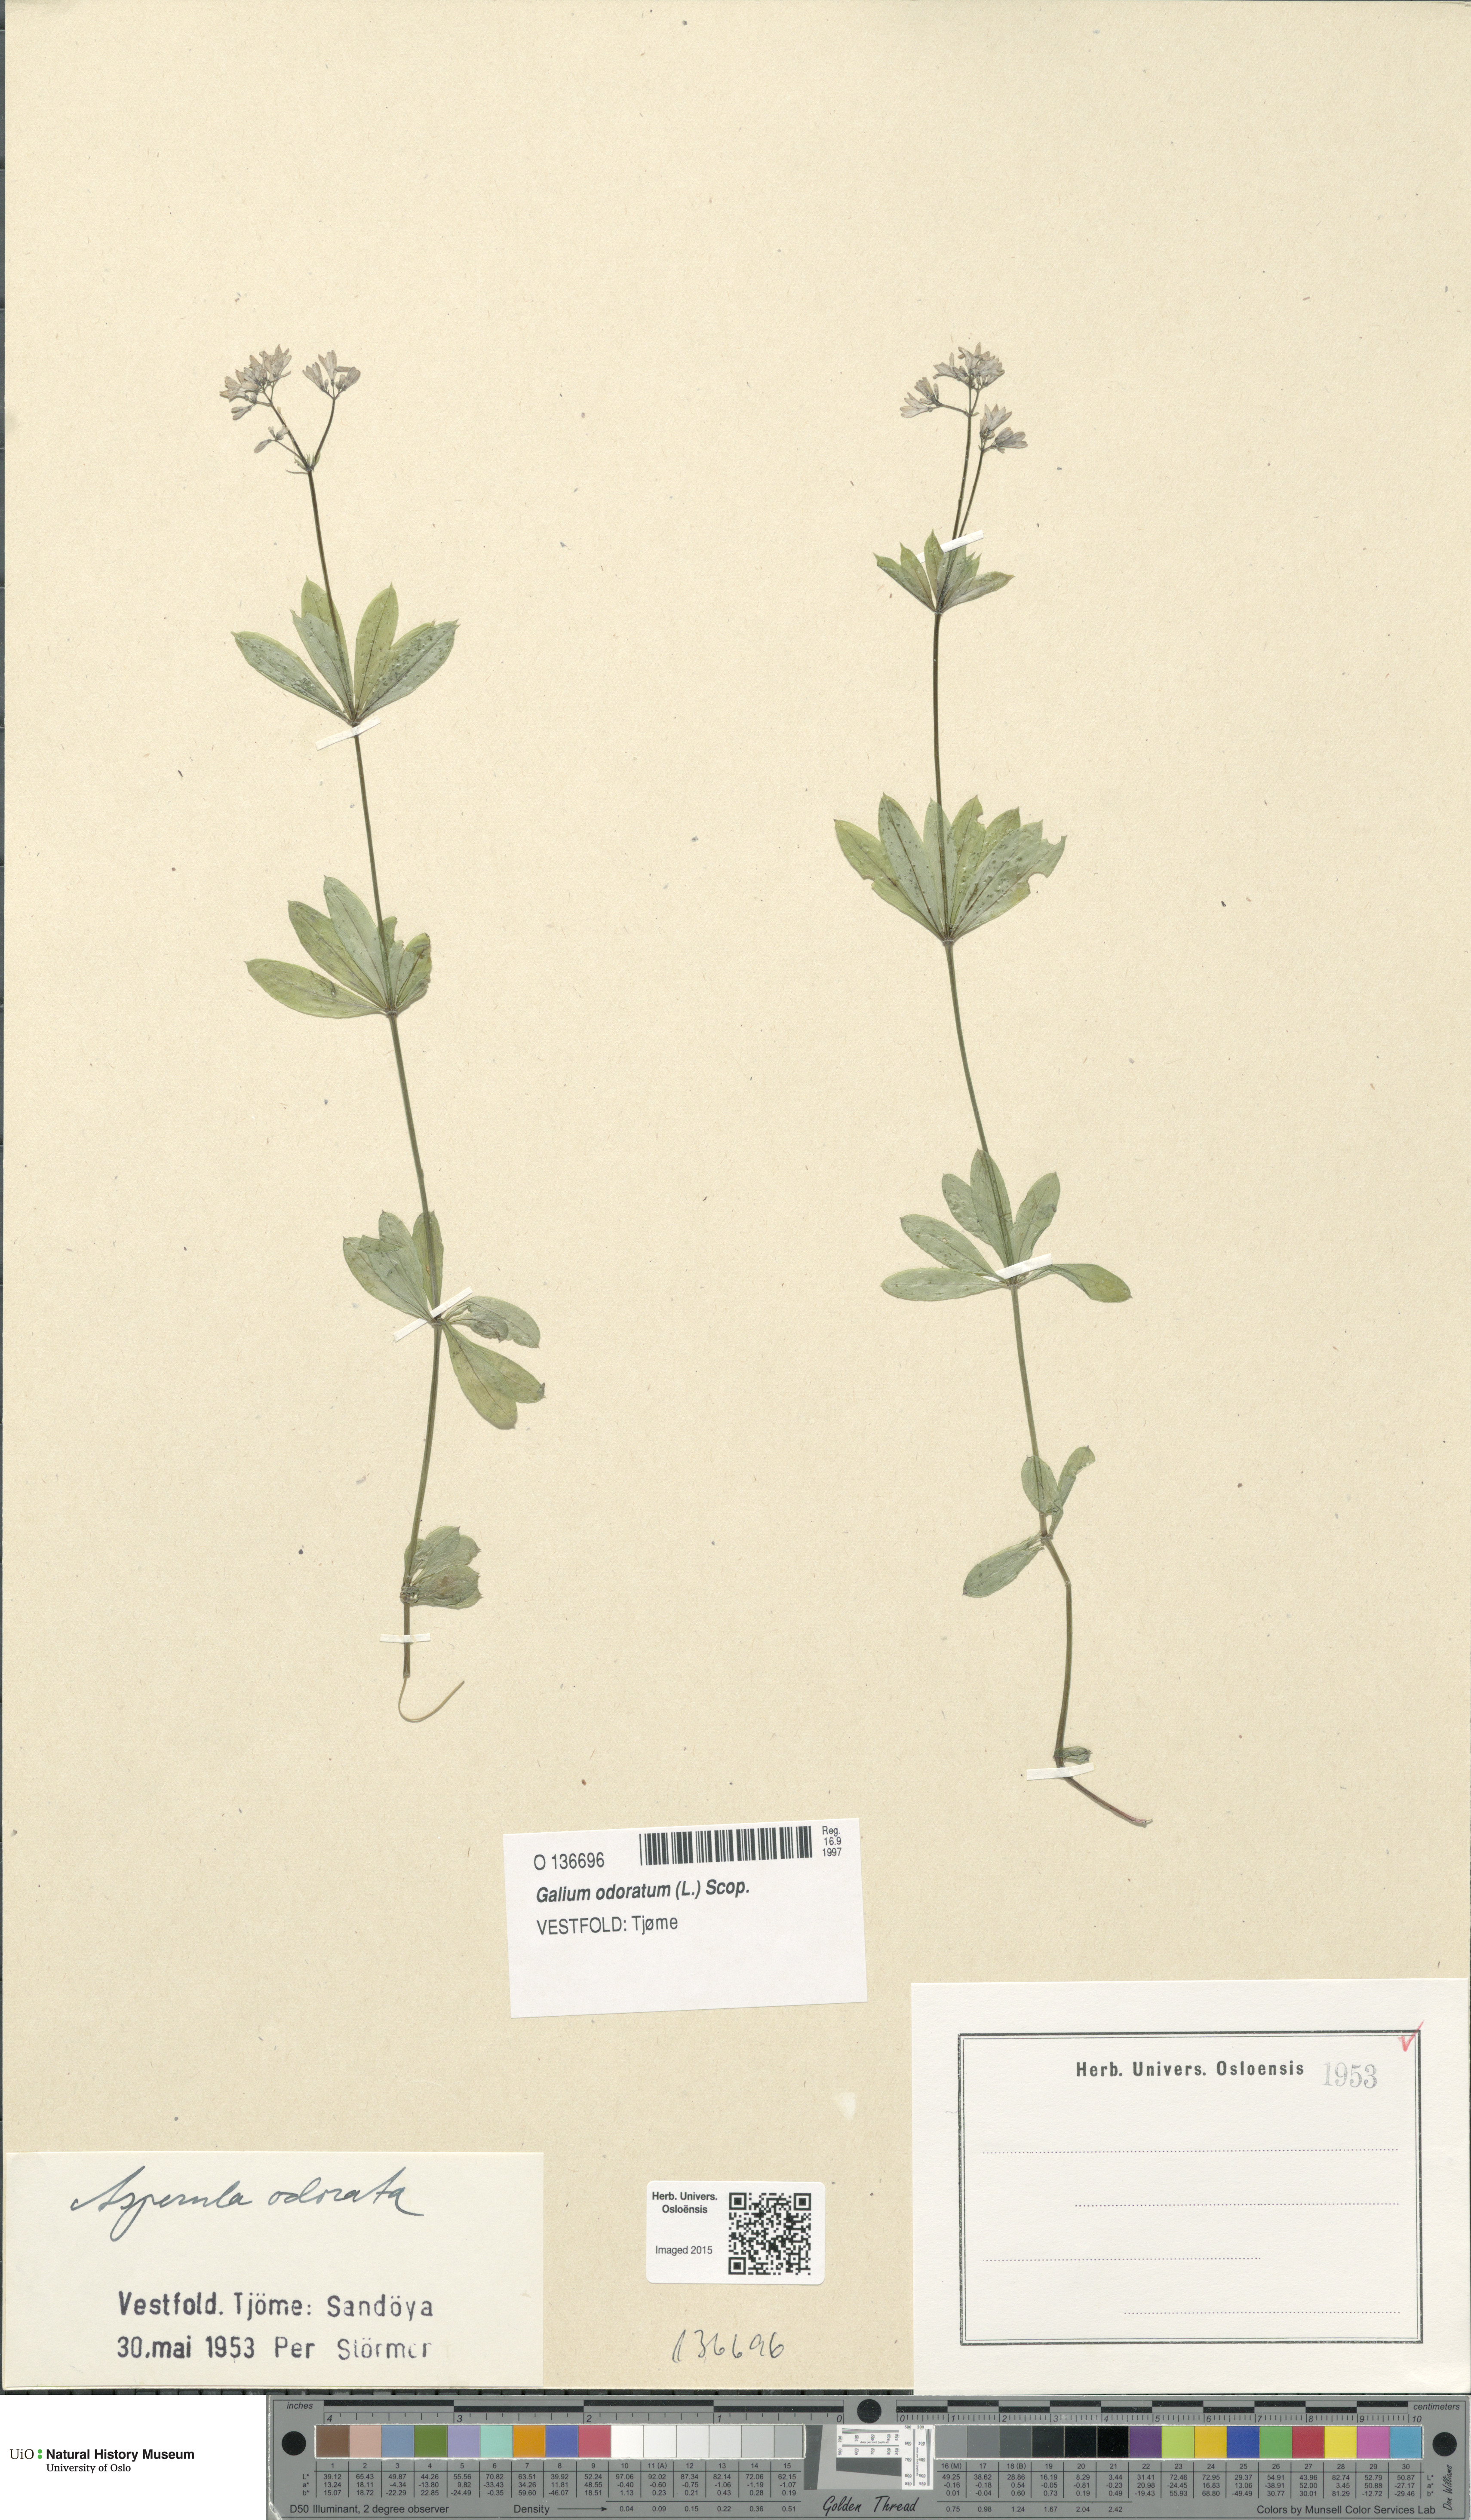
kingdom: Plantae
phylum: Tracheophyta
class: Magnoliopsida
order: Gentianales
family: Rubiaceae
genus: Galium
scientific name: Galium odoratum
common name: Sweet woodruff
